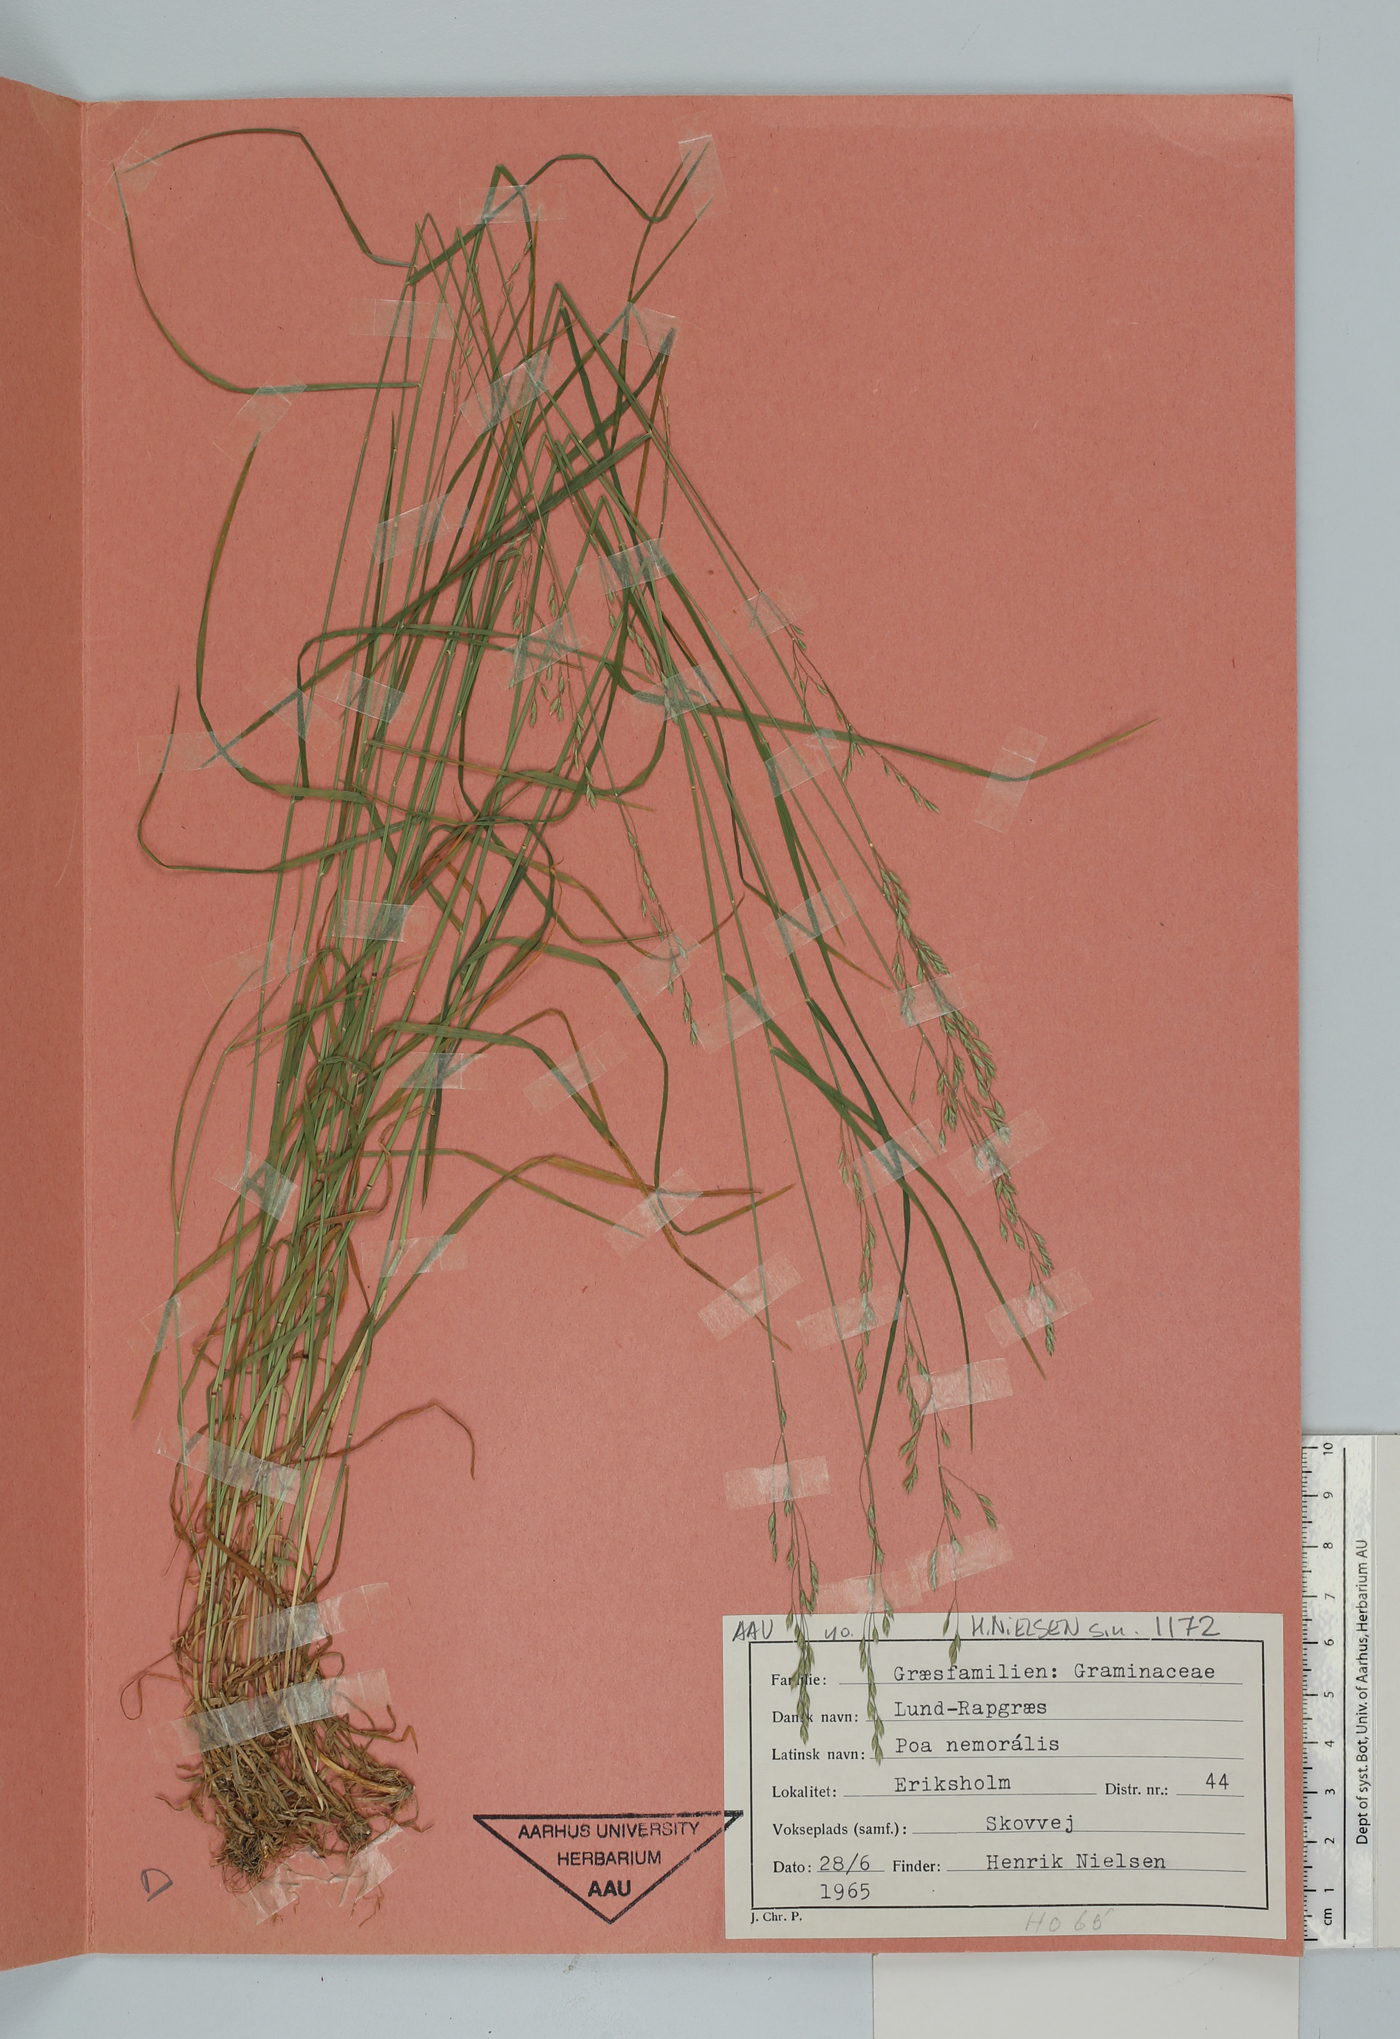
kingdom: Plantae
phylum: Tracheophyta
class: Liliopsida
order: Poales
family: Poaceae
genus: Poa
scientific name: Poa nemoralis
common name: Wood bluegrass
